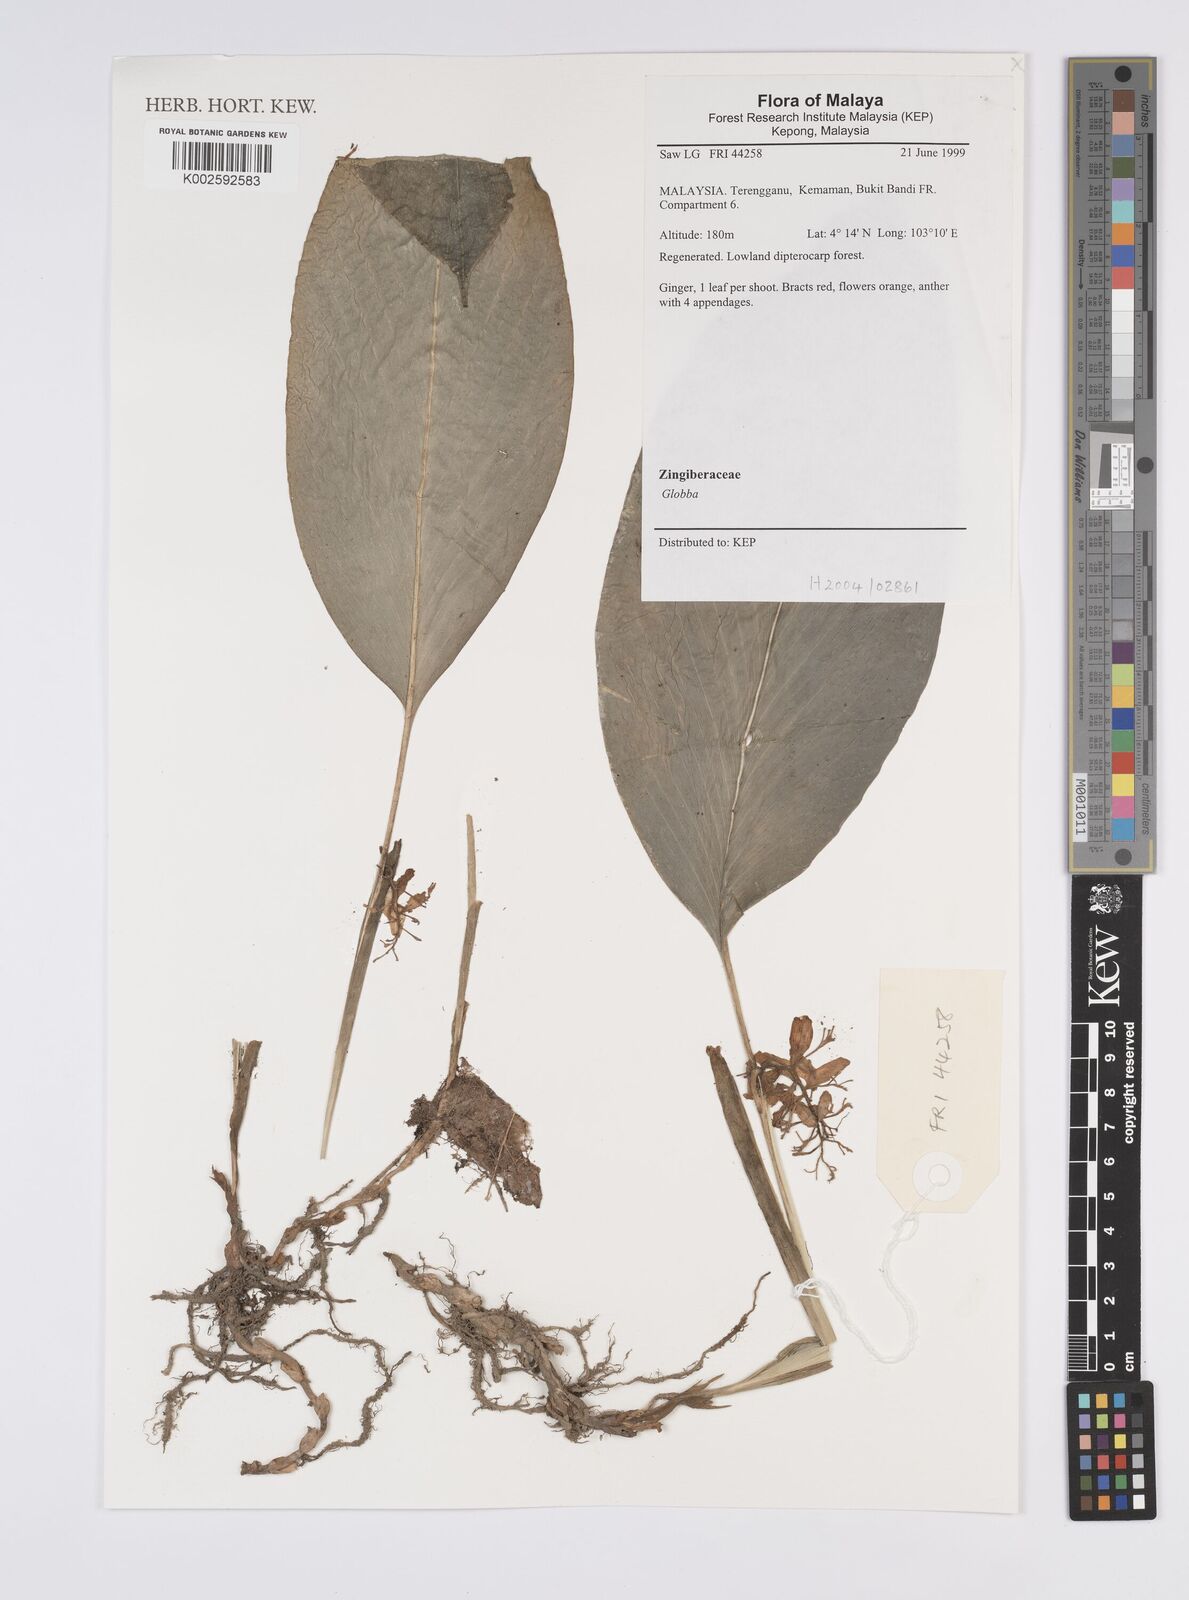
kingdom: Plantae
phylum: Tracheophyta
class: Liliopsida
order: Zingiberales
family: Zingiberaceae
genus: Globba
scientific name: Globba
